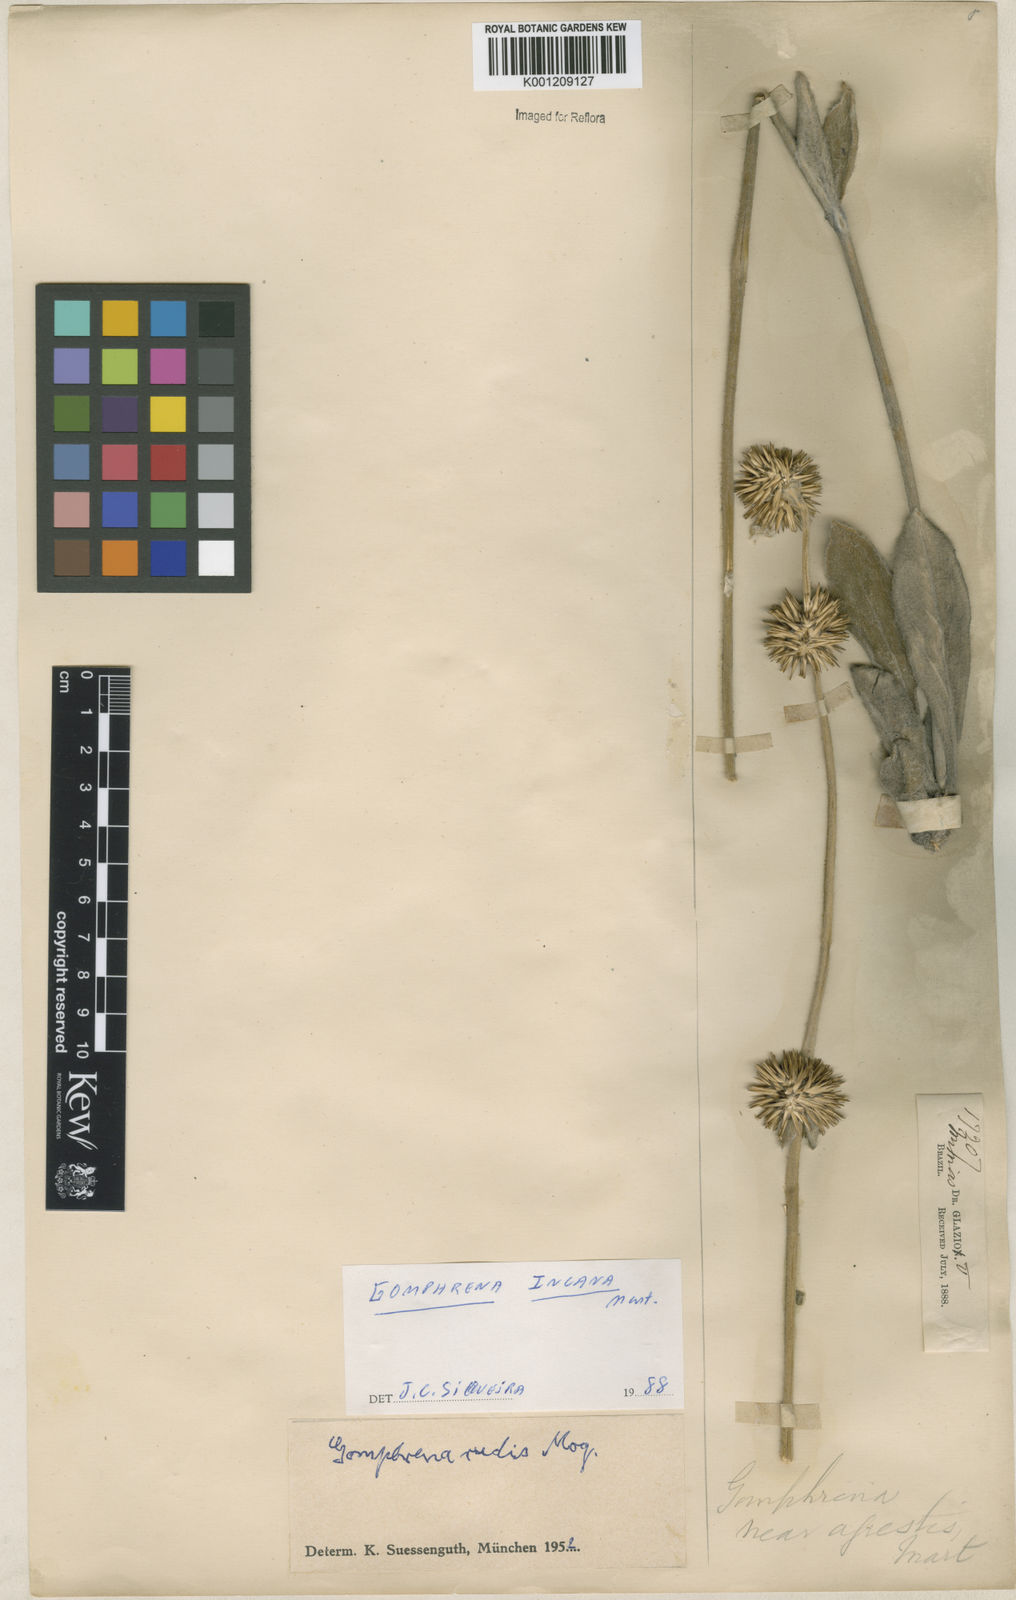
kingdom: Plantae
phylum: Tracheophyta
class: Magnoliopsida
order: Caryophyllales
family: Amaranthaceae
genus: Gomphrena
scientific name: Gomphrena incana
